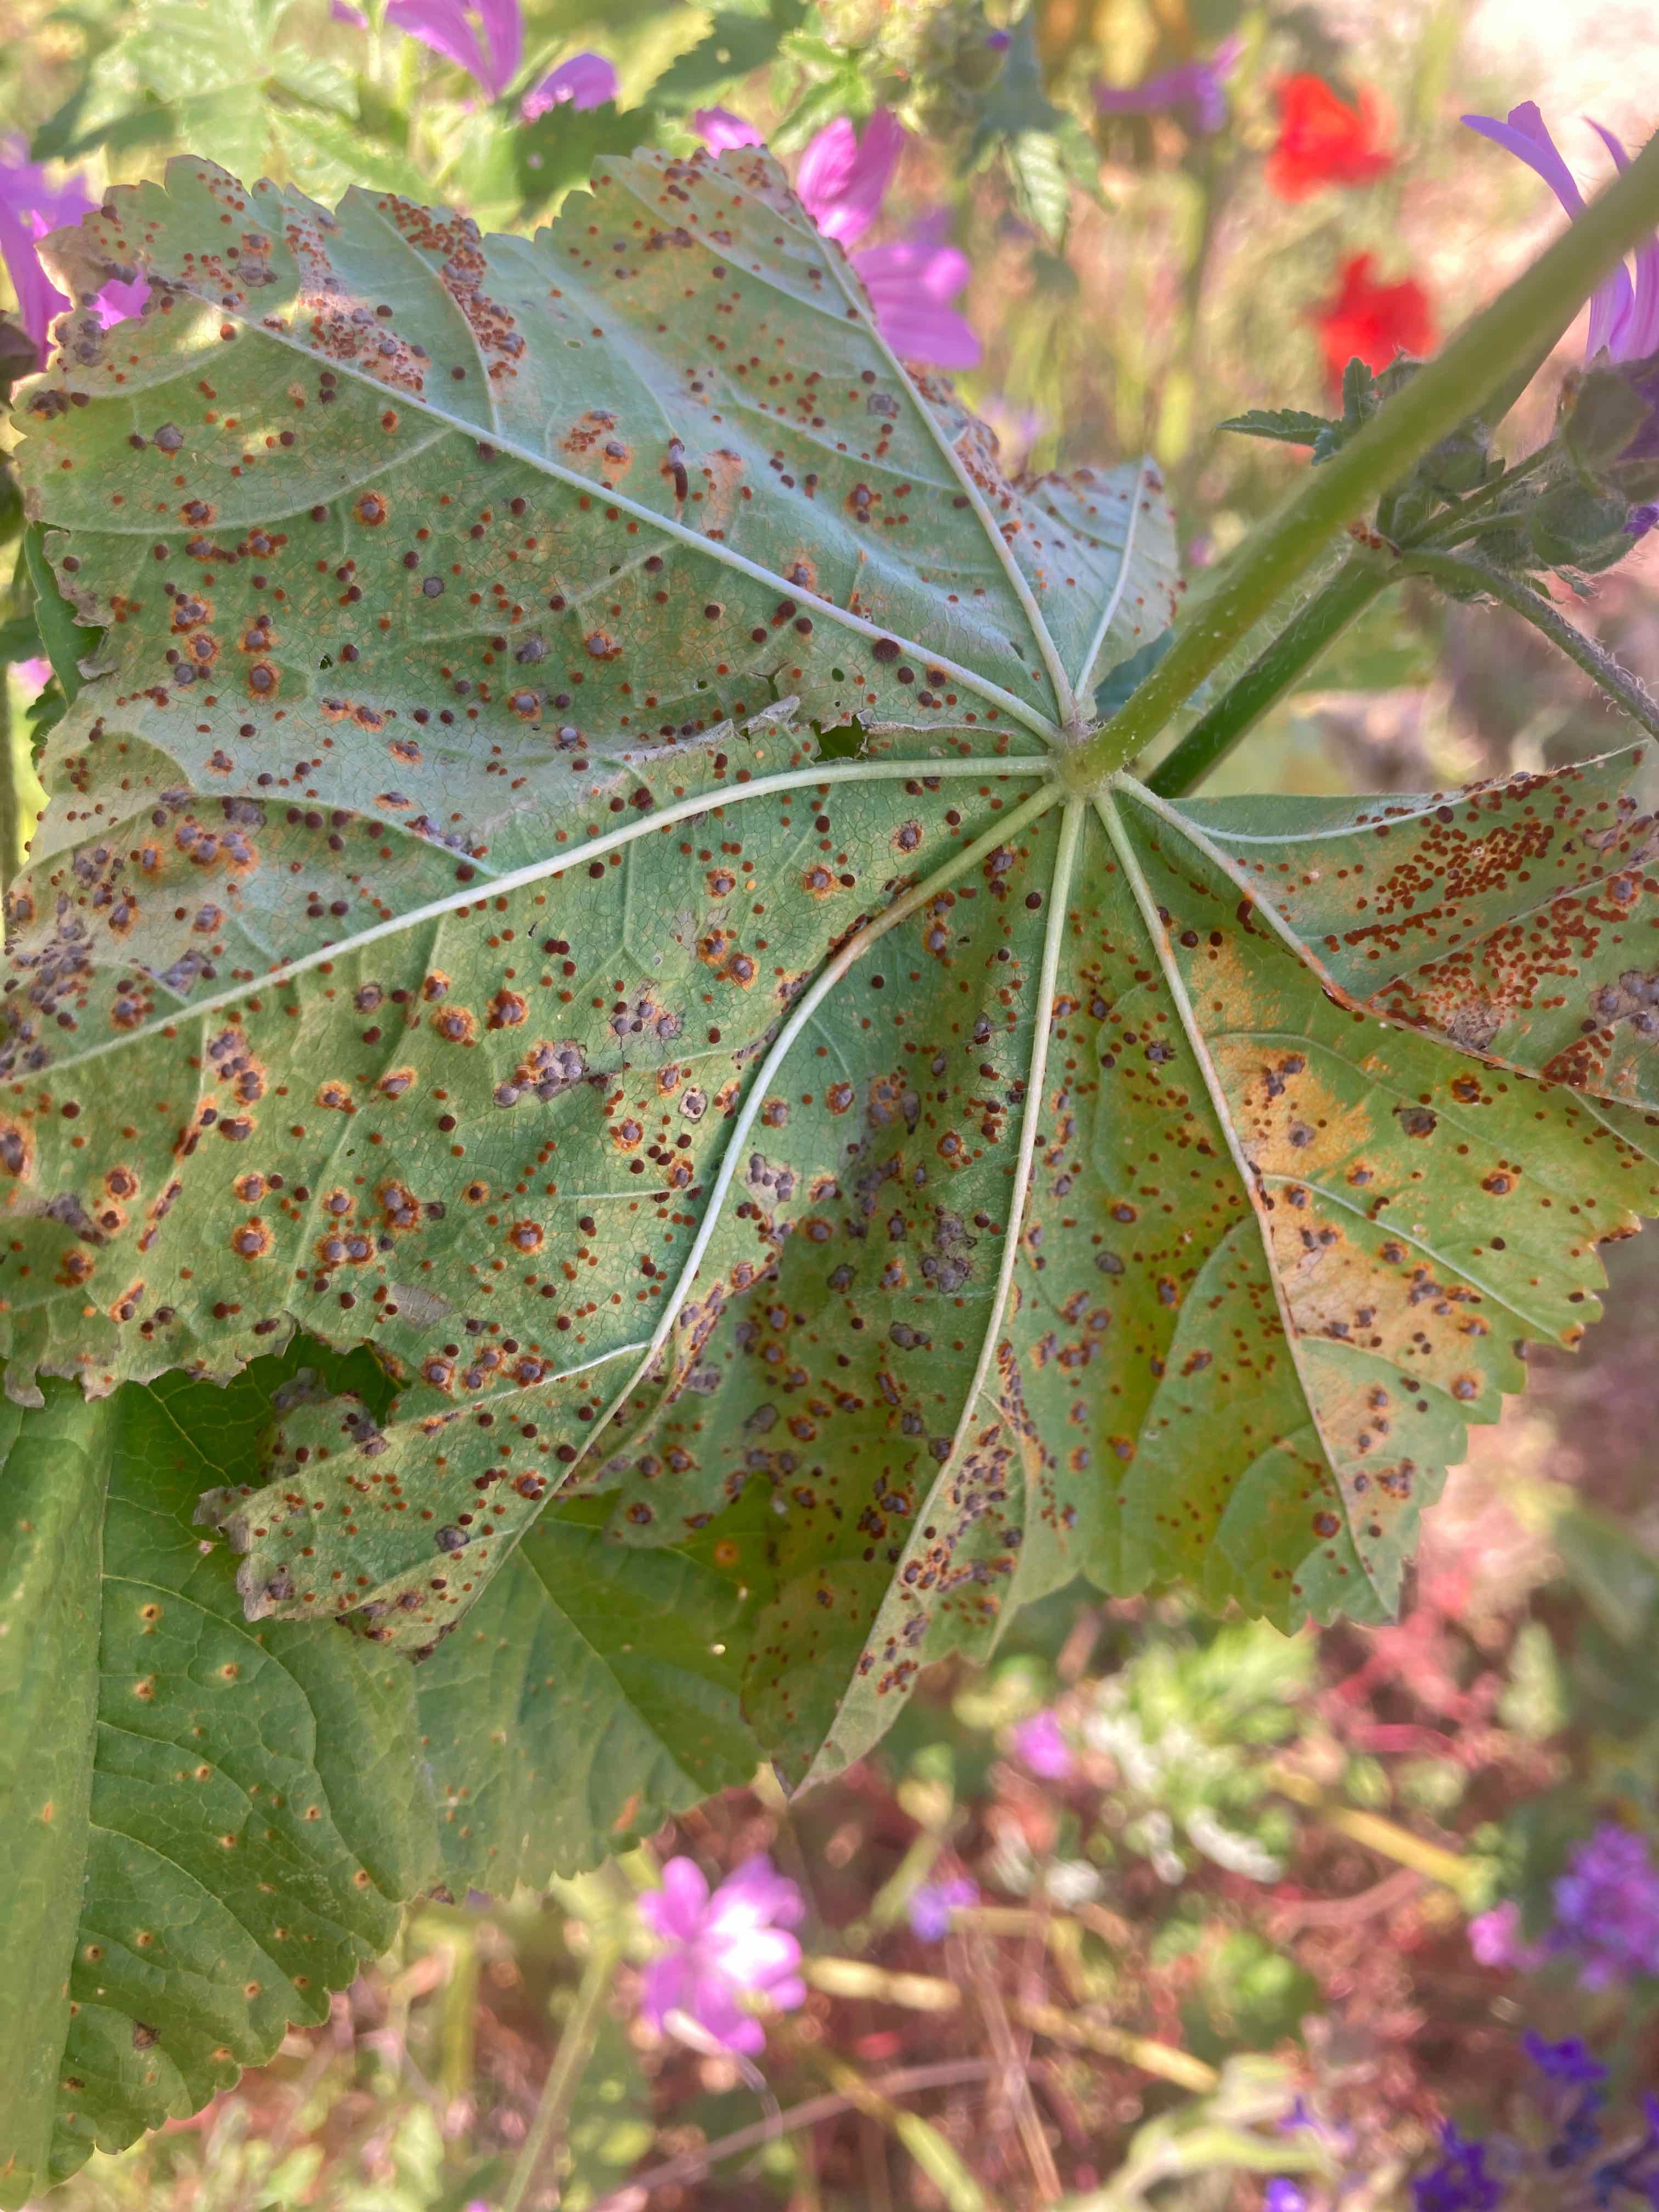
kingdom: Fungi
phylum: Basidiomycota
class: Pucciniomycetes
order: Pucciniales
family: Pucciniaceae
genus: Puccinia
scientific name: Puccinia malvacearum
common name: stokrose-tvecellerust
